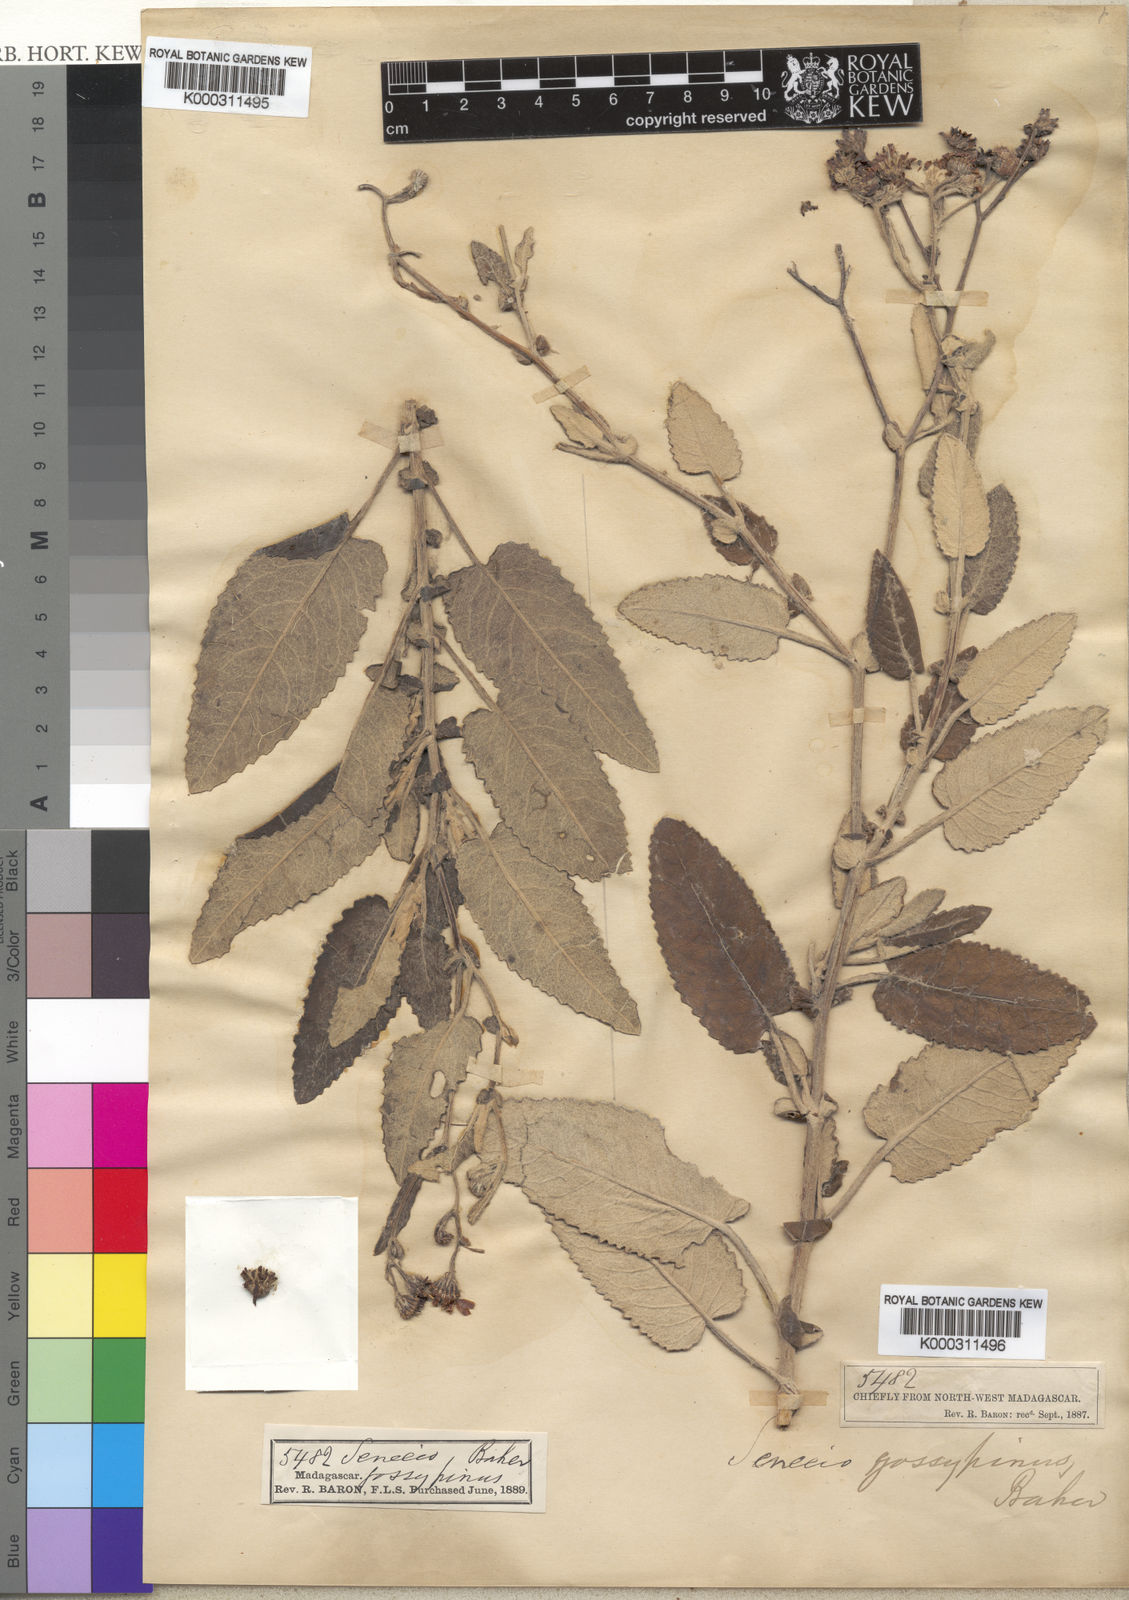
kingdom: Plantae
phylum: Tracheophyta
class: Magnoliopsida
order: Asterales
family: Asteraceae
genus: Senecio
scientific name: Senecio gossypinus
